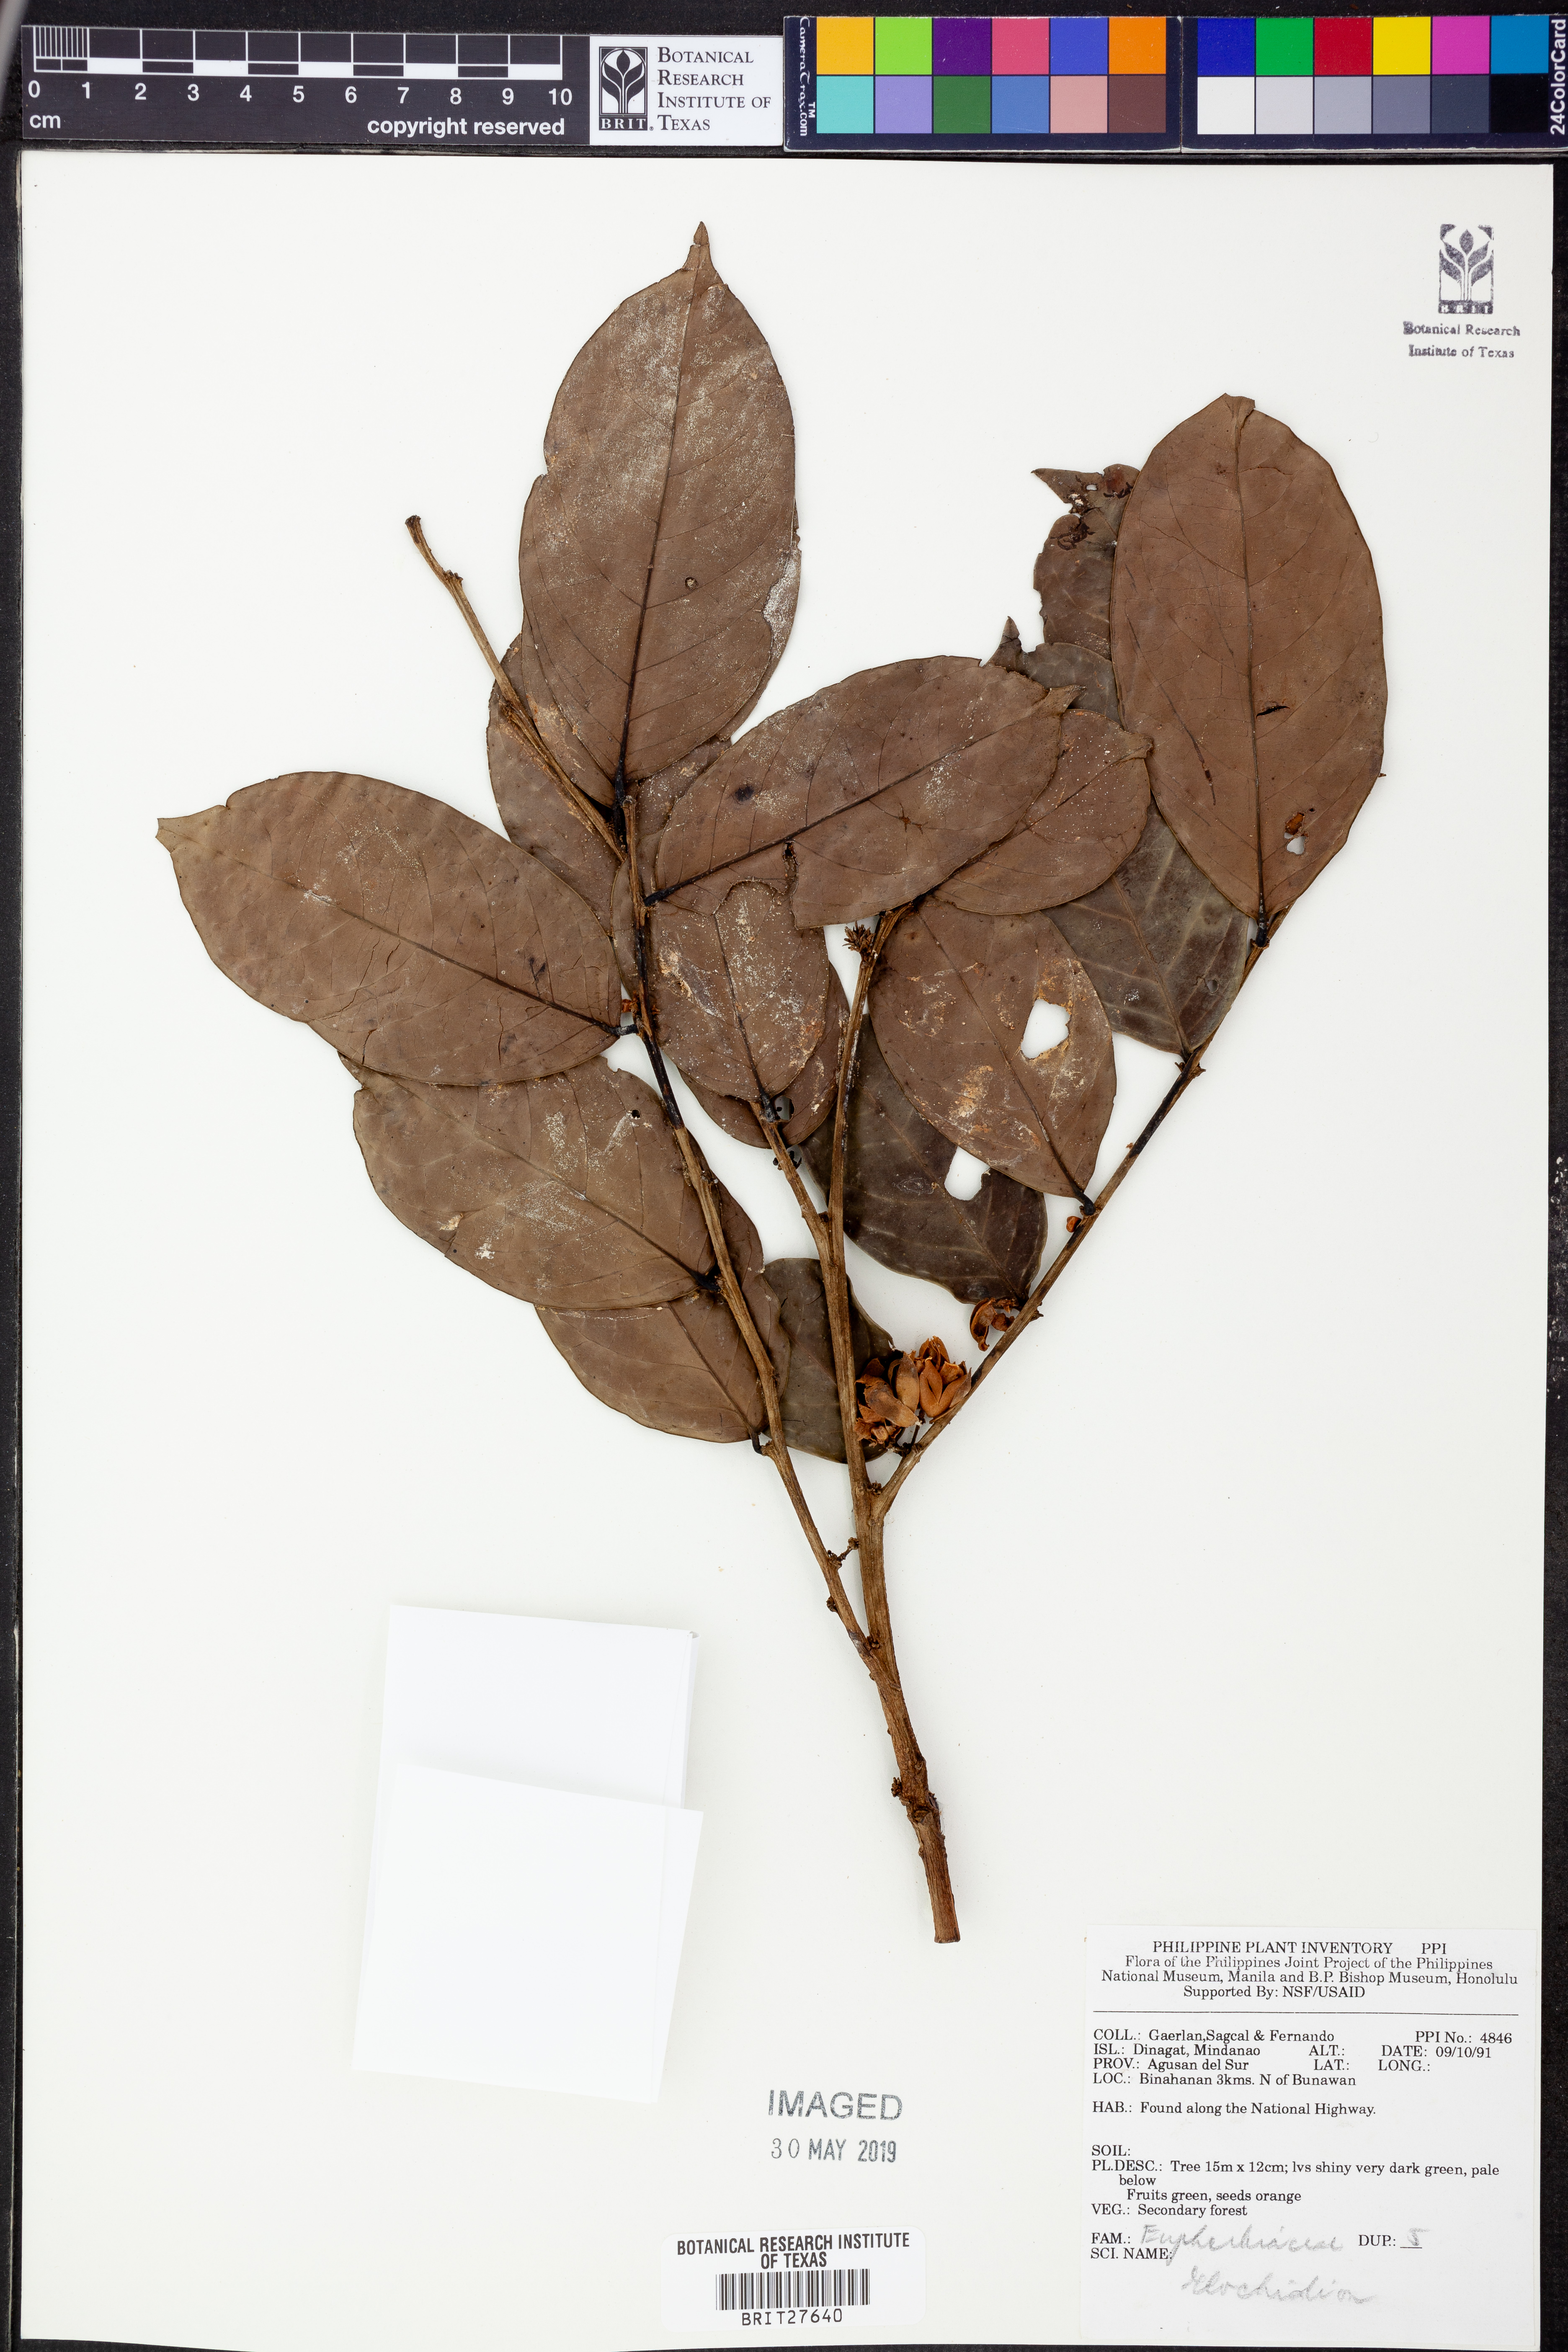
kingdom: Plantae
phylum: Tracheophyta
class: Magnoliopsida
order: Malpighiales
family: Phyllanthaceae
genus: Glochidion
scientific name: Glochidion
